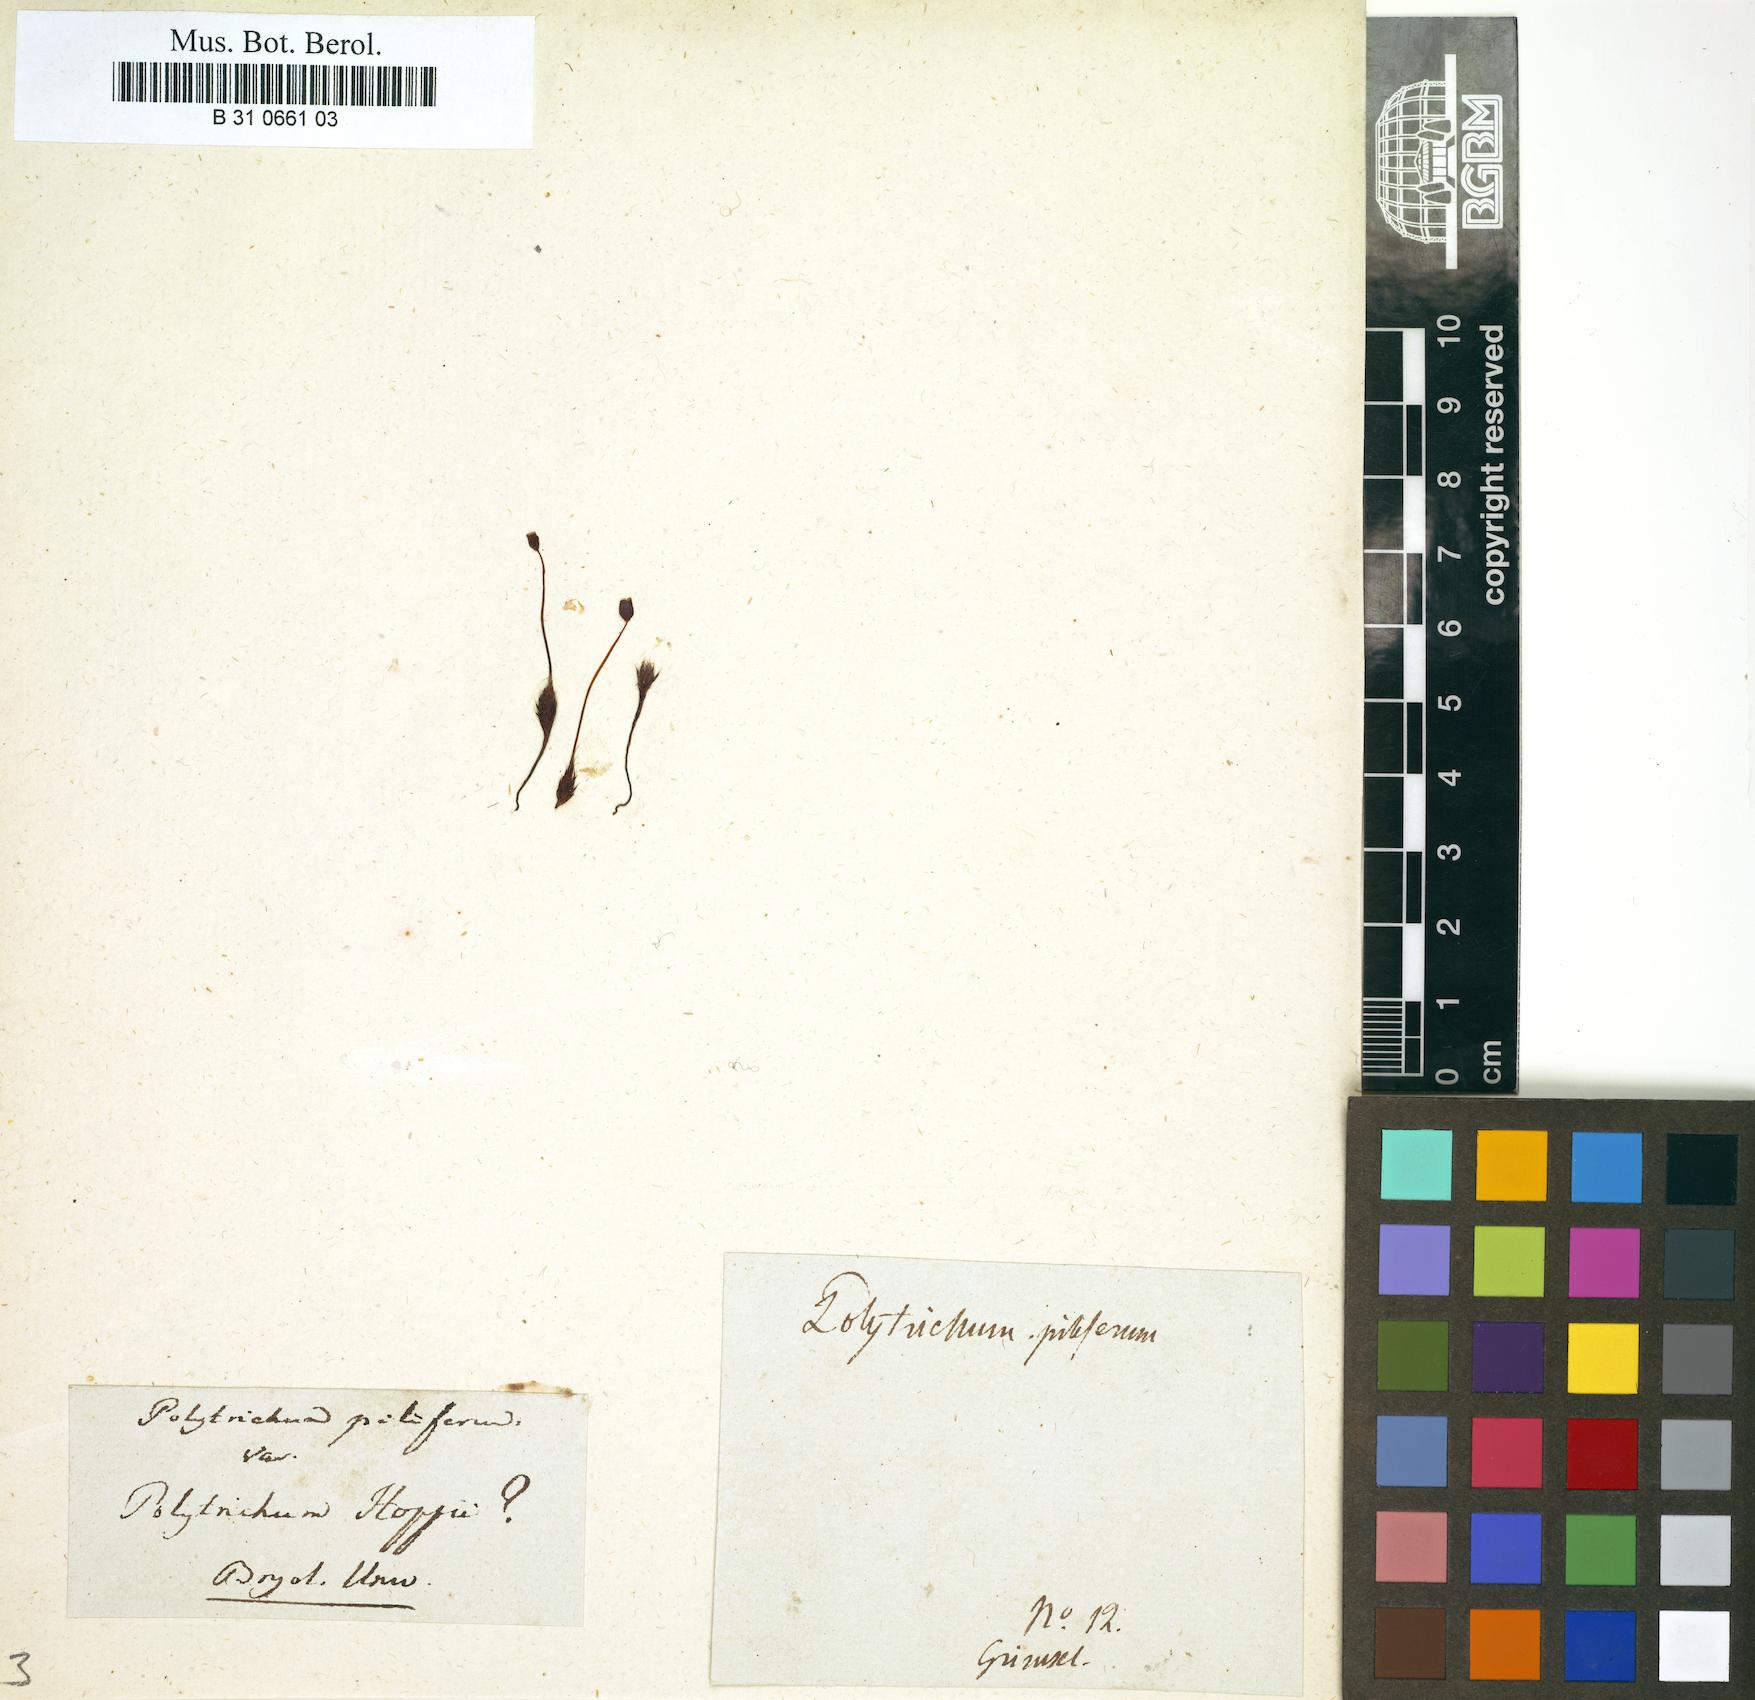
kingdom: Plantae
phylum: Bryophyta
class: Polytrichopsida
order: Polytrichales
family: Polytrichaceae
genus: Polytrichum
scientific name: Polytrichum piliferum
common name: Bristly haircap
